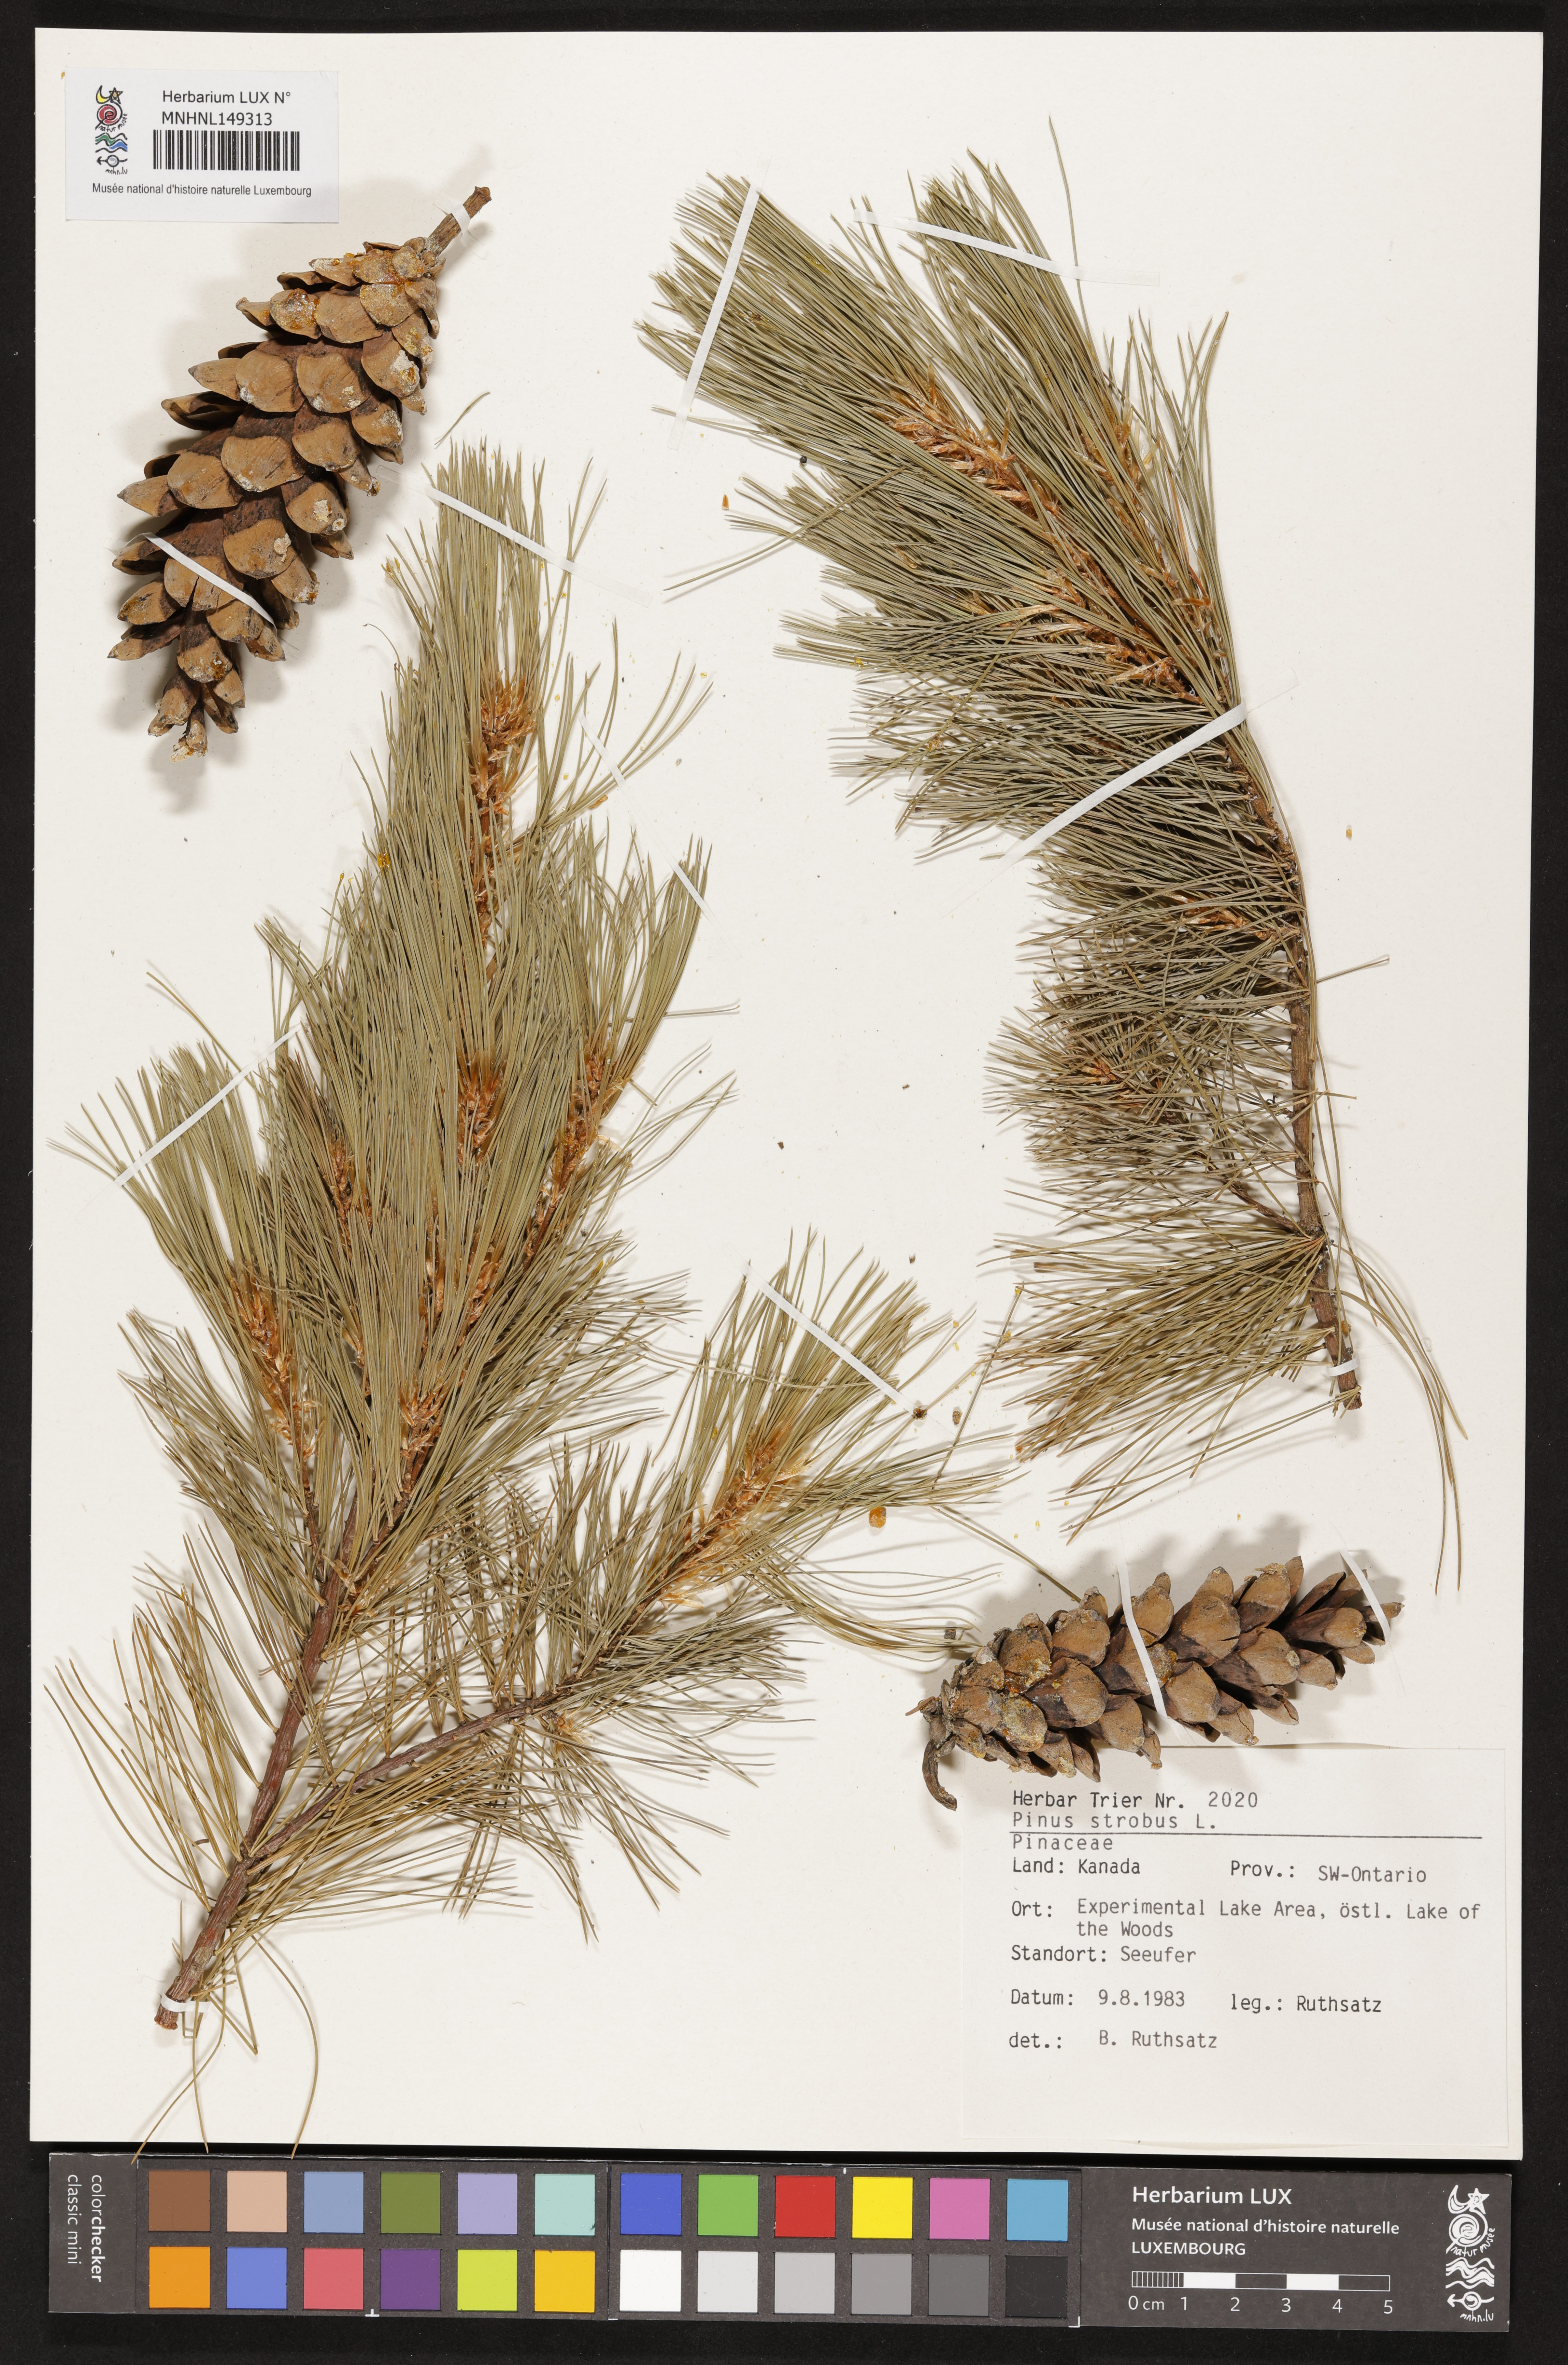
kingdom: Plantae
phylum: Tracheophyta
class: Pinopsida
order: Pinales
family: Pinaceae
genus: Pinus
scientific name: Pinus strobus
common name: Weymouth pine
